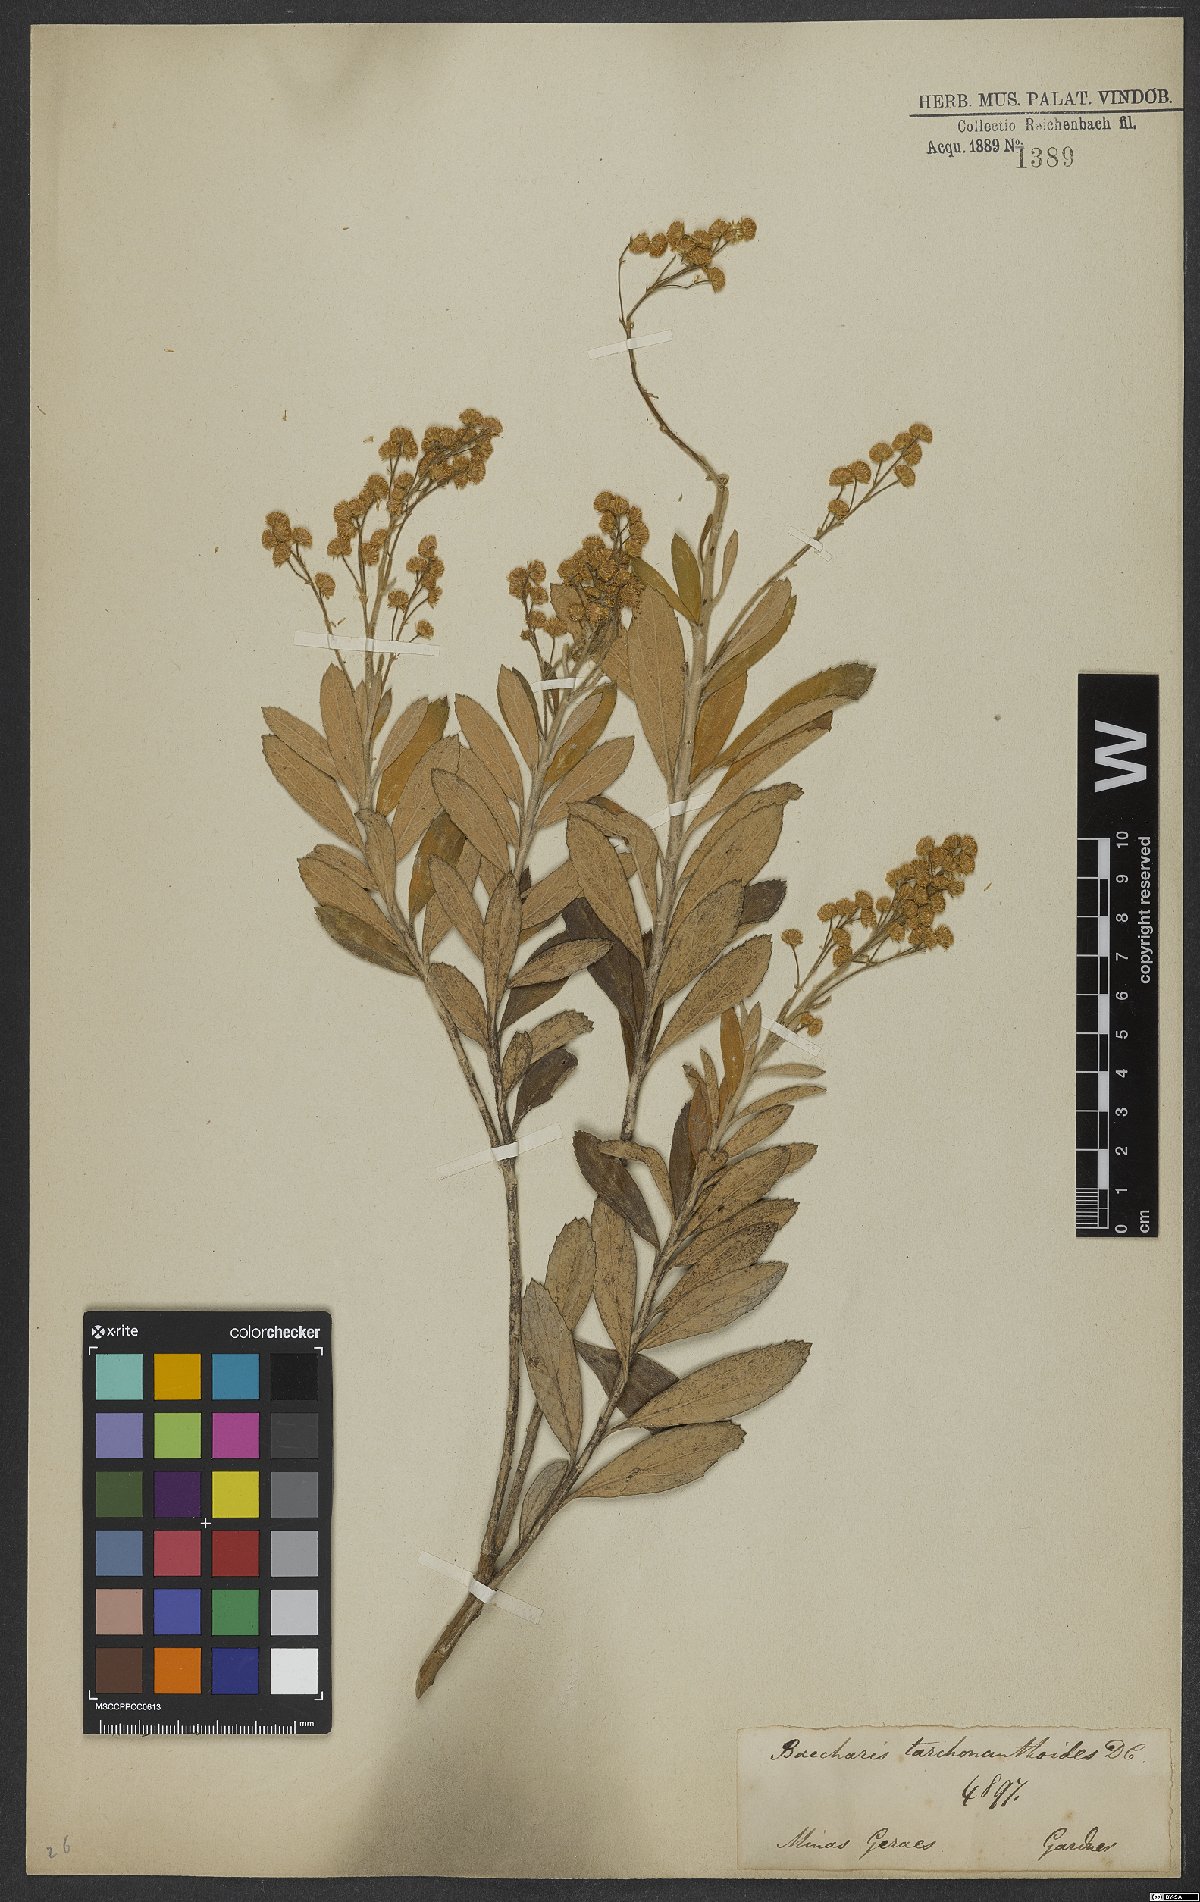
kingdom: Plantae
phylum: Tracheophyta
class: Magnoliopsida
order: Asterales
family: Asteraceae
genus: Baccharis
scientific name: Baccharis tarchonanthoides
